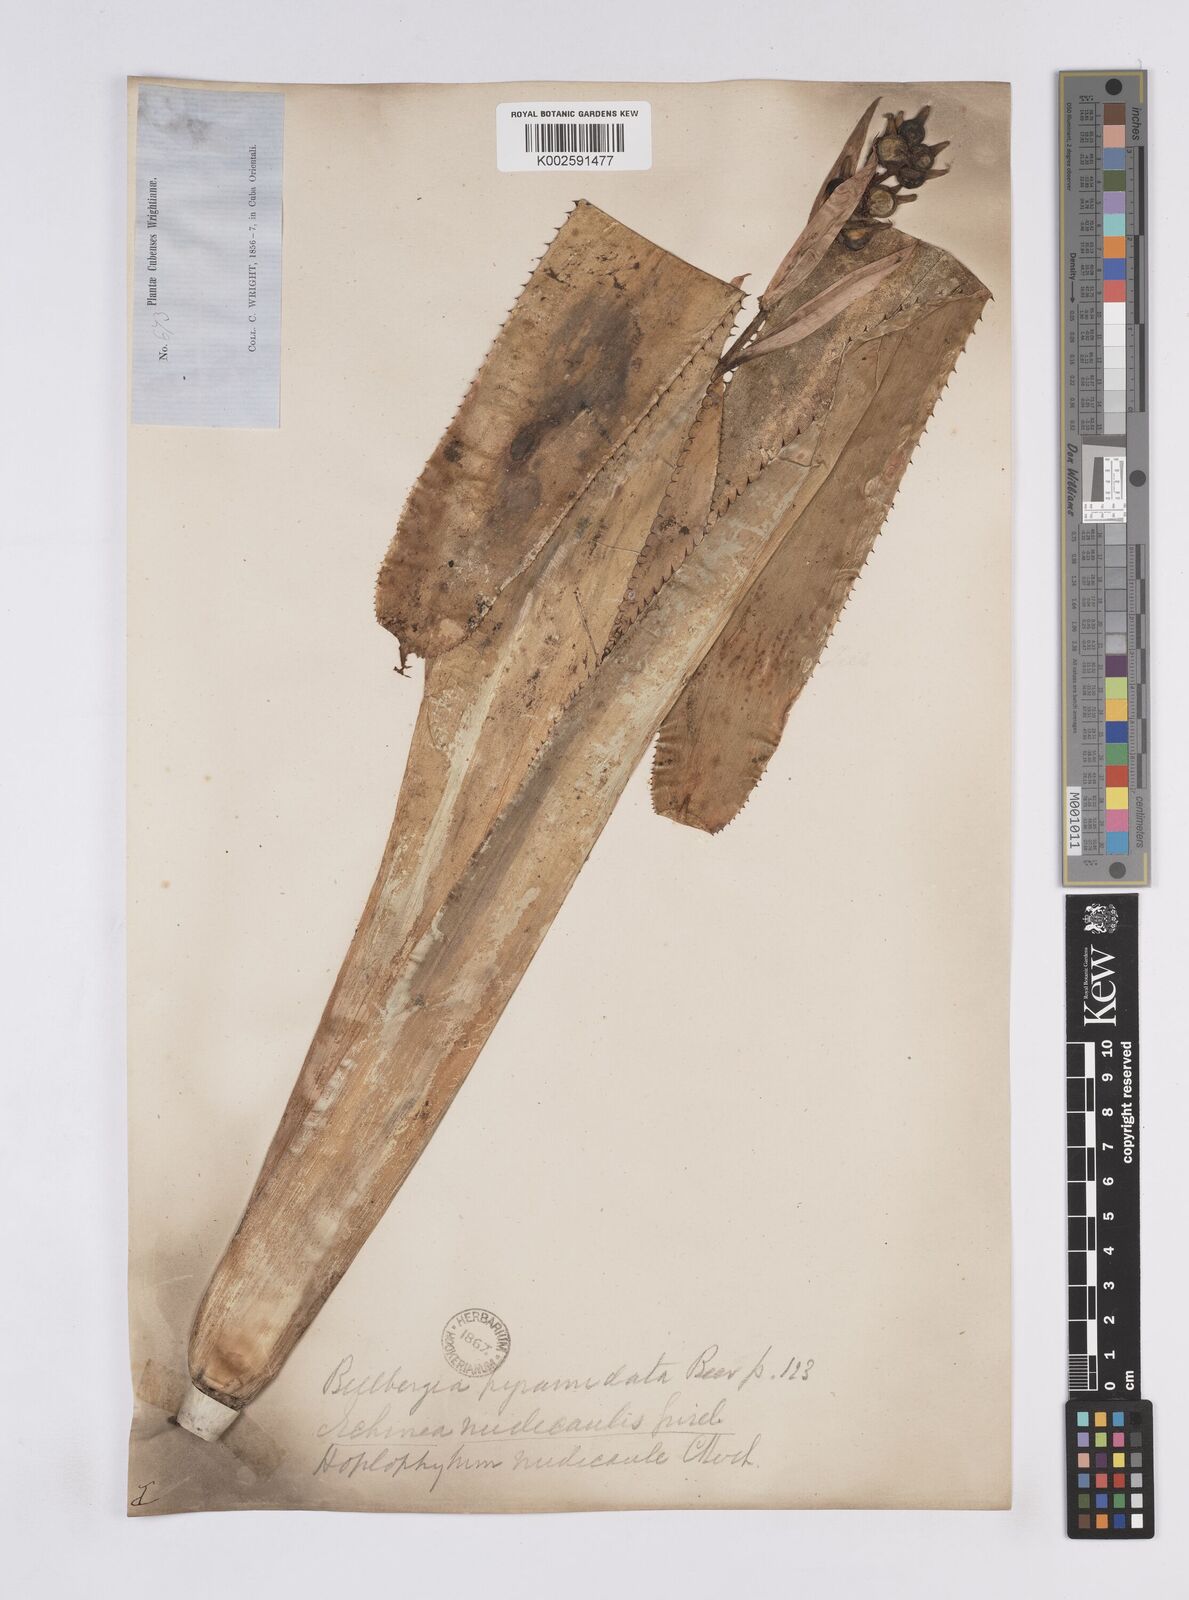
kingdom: Plantae
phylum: Tracheophyta
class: Liliopsida
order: Poales
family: Bromeliaceae
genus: Aechmea
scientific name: Aechmea nudicaulis
